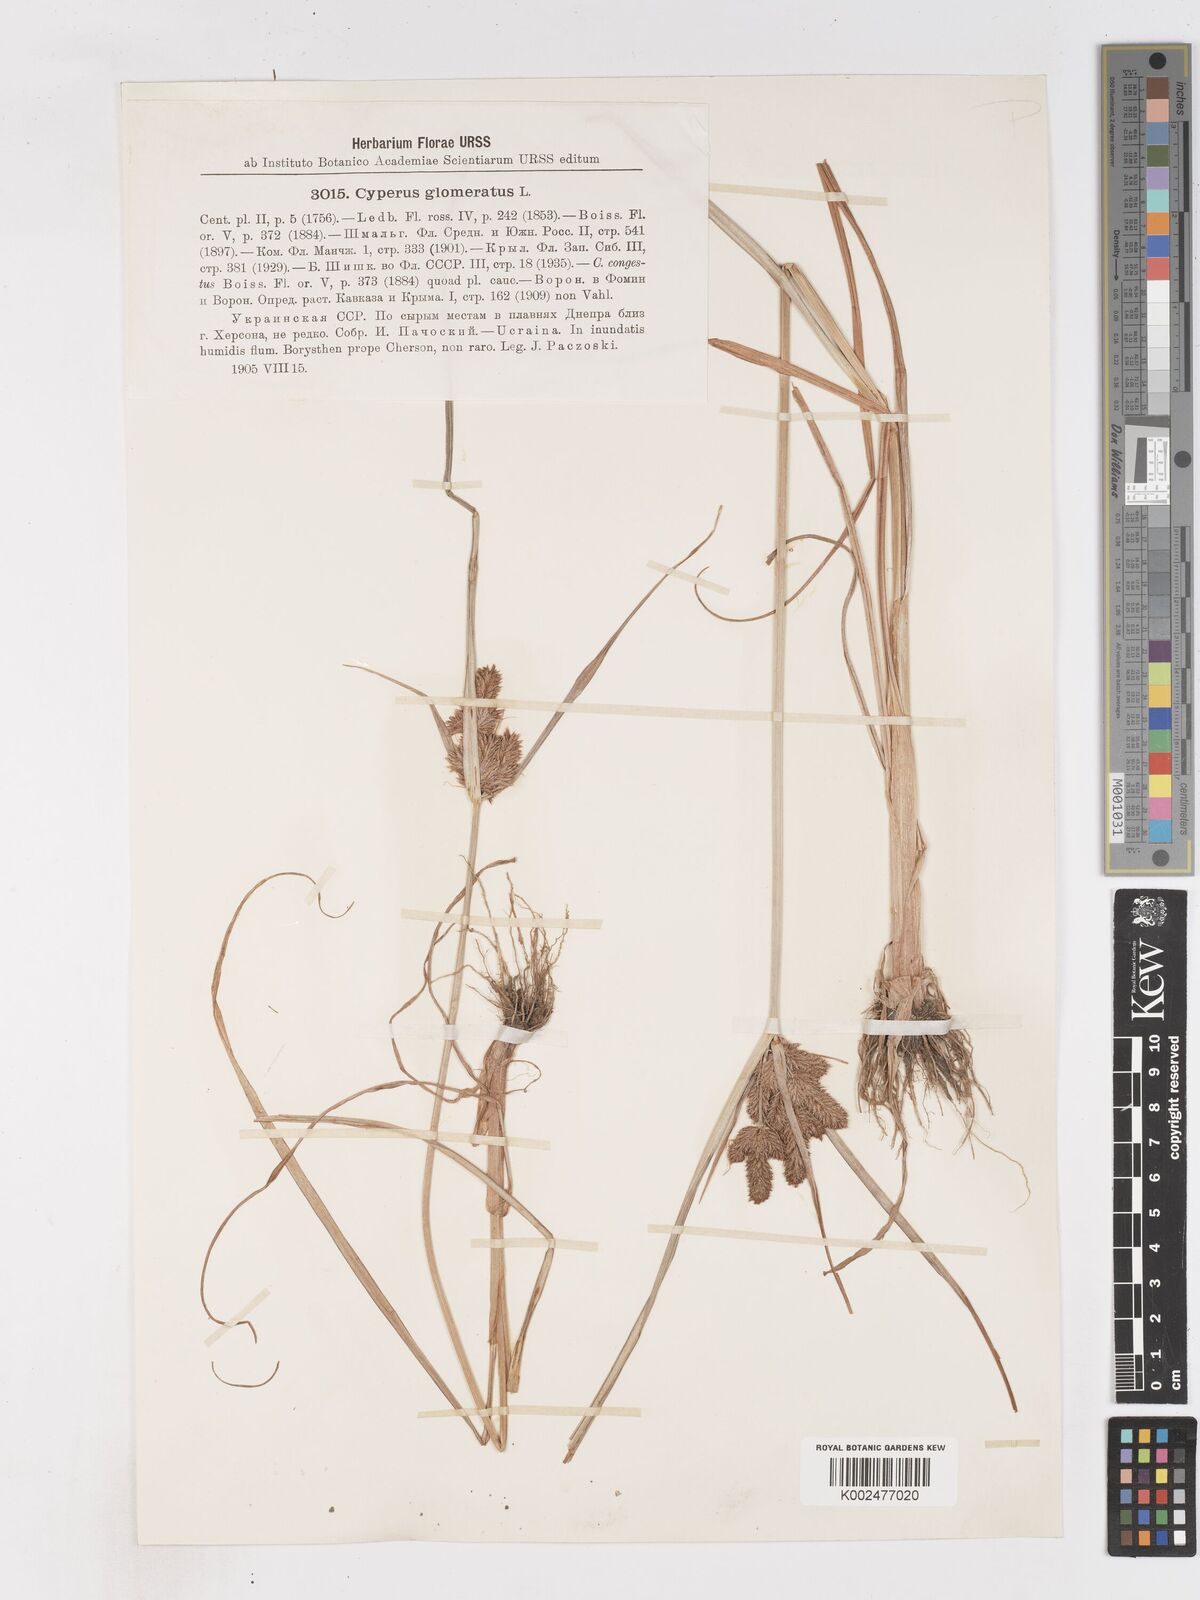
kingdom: Plantae
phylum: Tracheophyta
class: Liliopsida
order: Poales
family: Cyperaceae
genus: Cyperus
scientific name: Cyperus glomeratus
